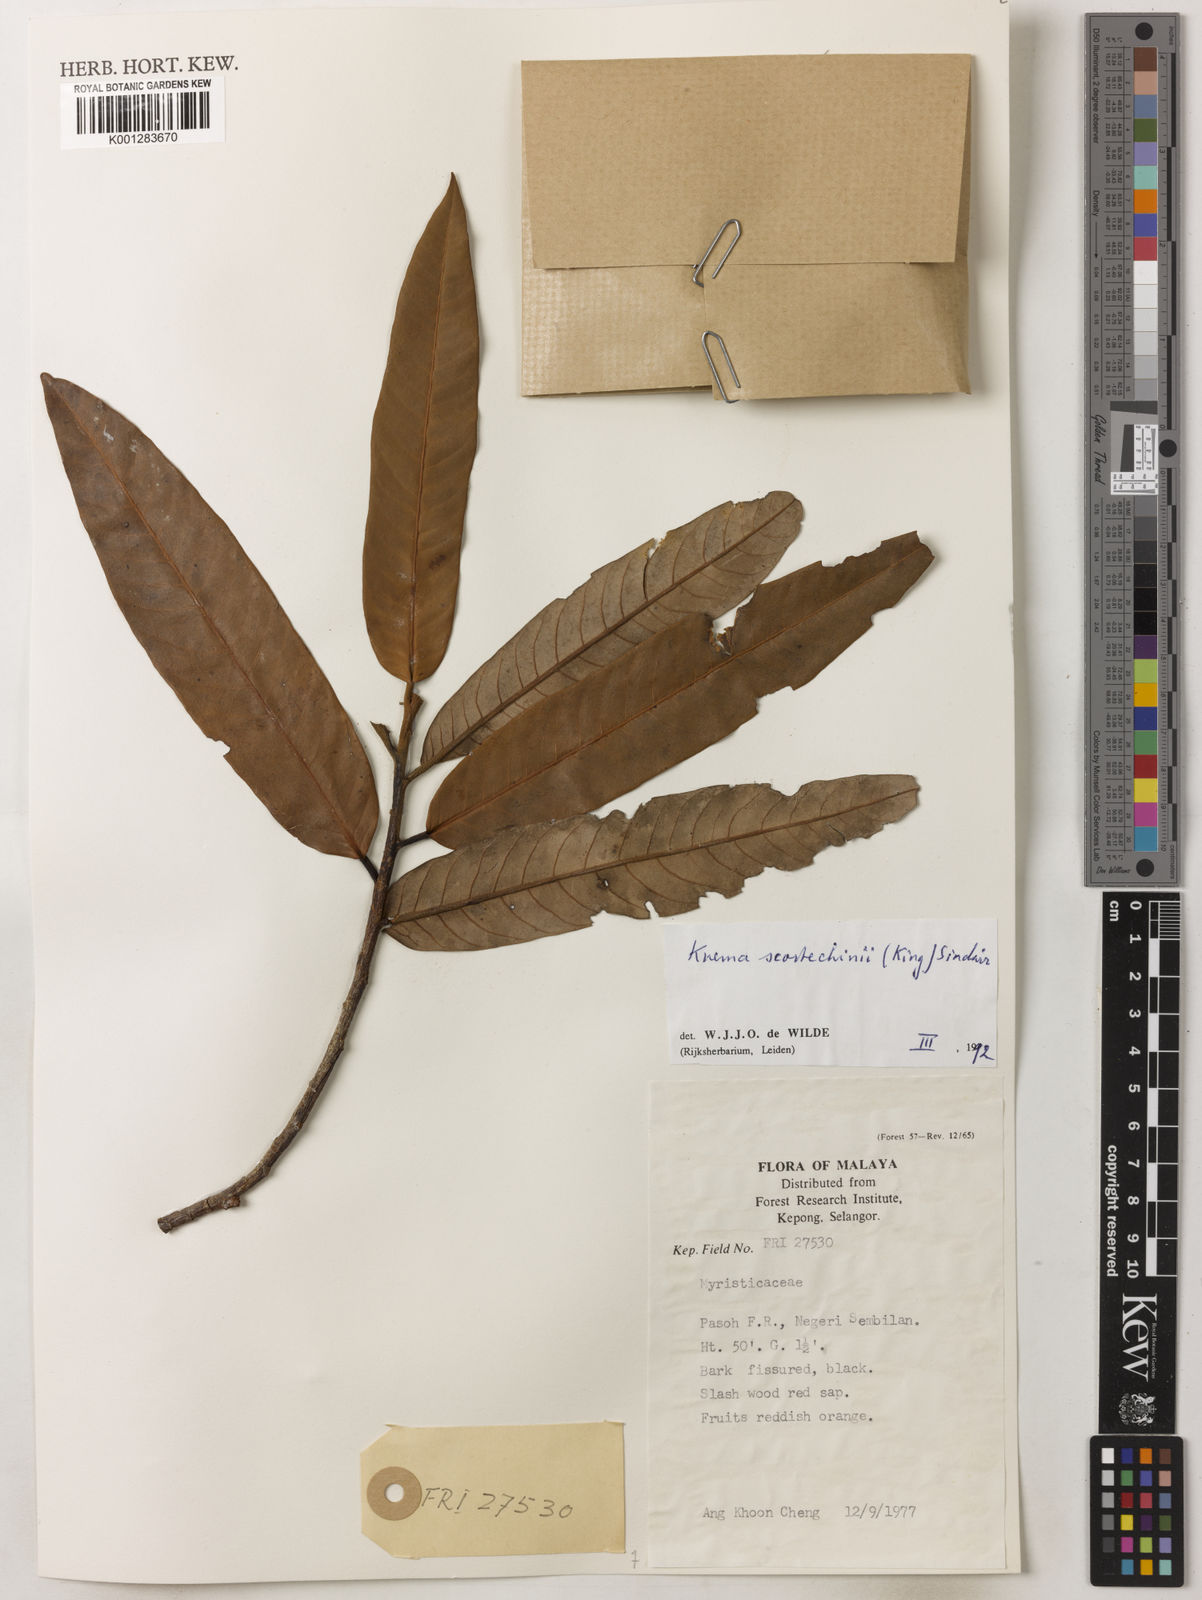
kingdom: Plantae
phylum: Tracheophyta
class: Magnoliopsida
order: Magnoliales
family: Myristicaceae
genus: Knema
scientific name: Knema scortechinii
